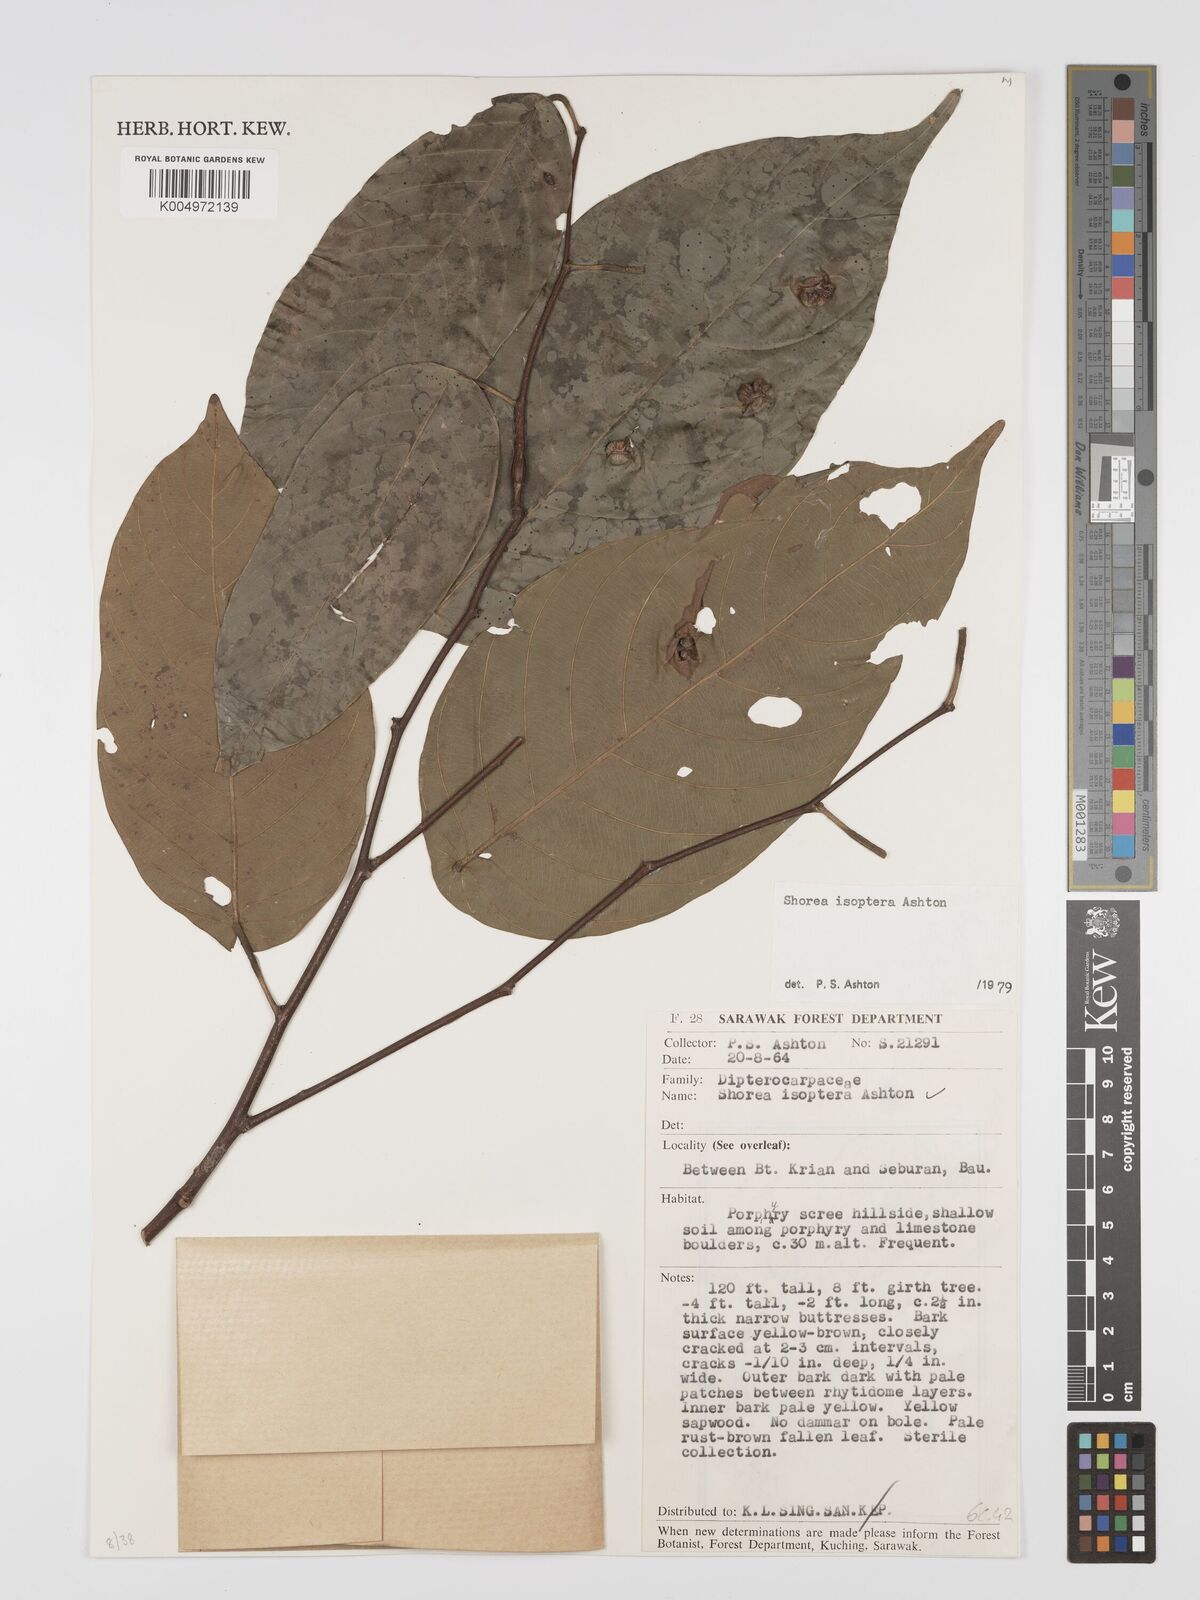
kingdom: Plantae
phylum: Tracheophyta
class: Magnoliopsida
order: Malvales
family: Dipterocarpaceae
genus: Neohopea
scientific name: Neohopea isoptera
